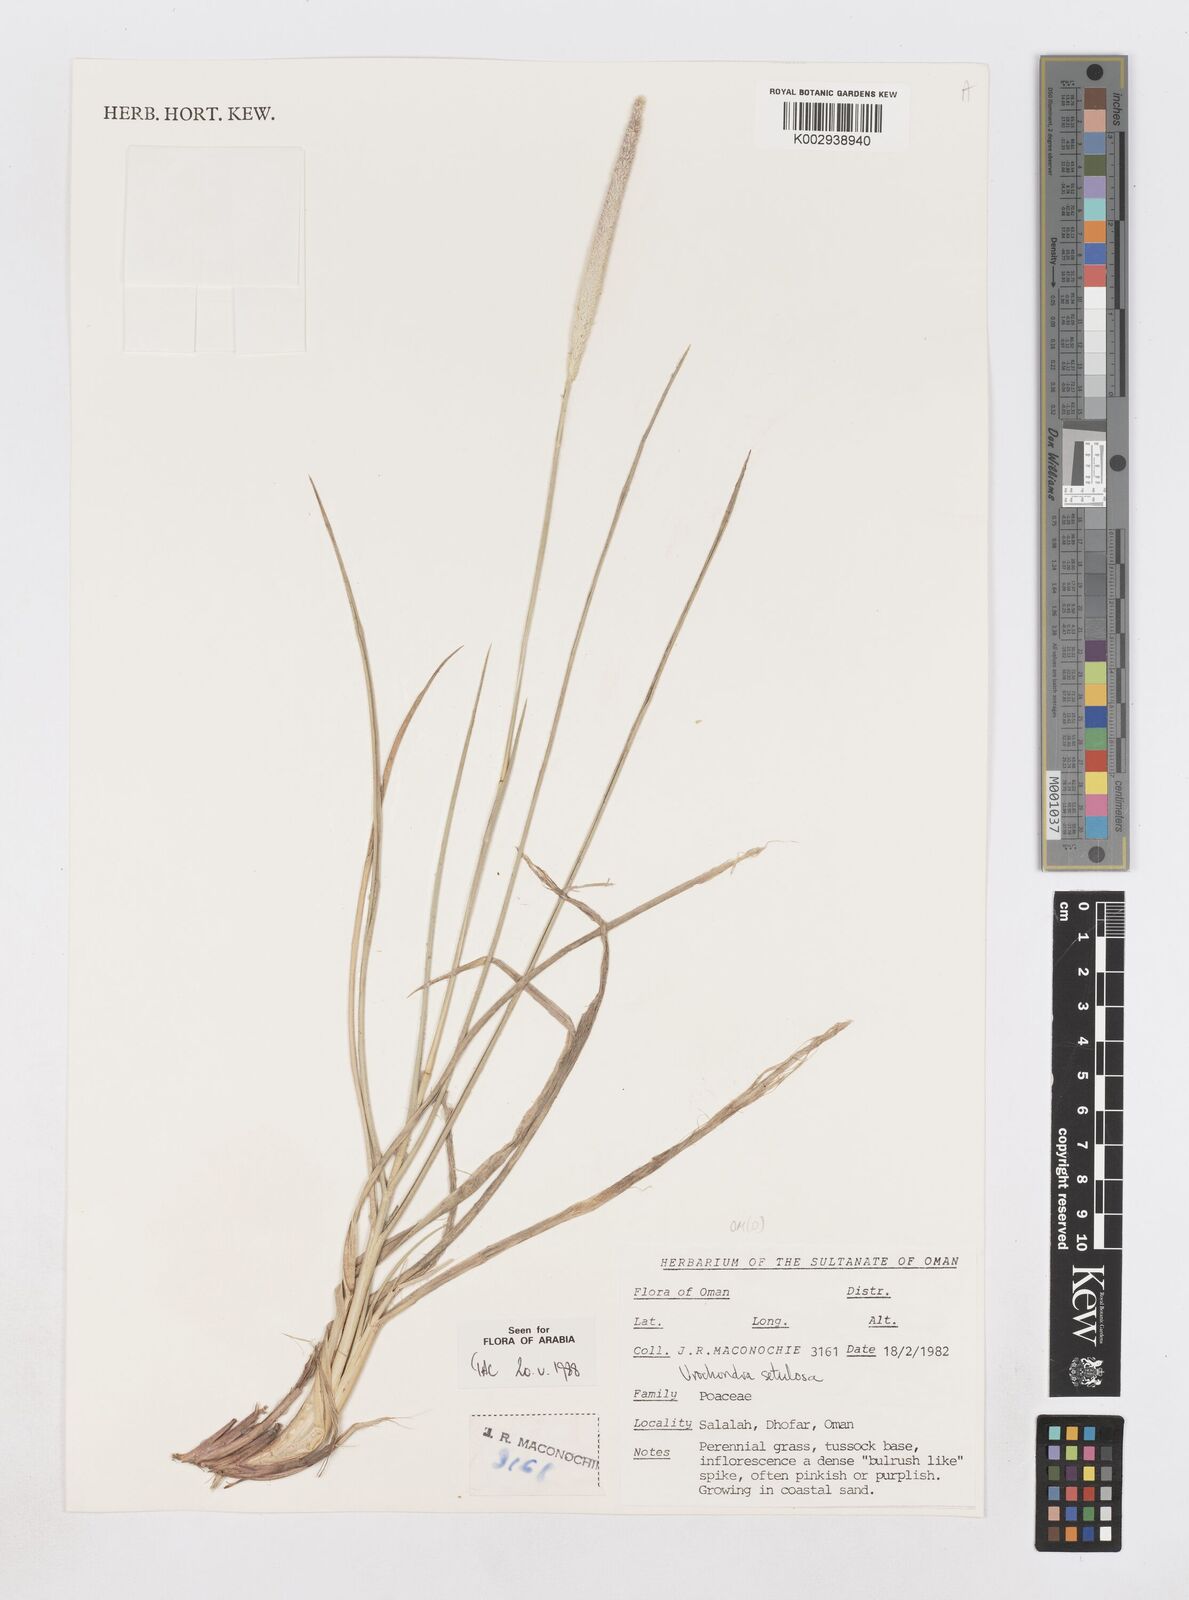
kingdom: Plantae
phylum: Tracheophyta
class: Liliopsida
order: Poales
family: Poaceae
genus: Urochondra
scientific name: Urochondra setulosa
